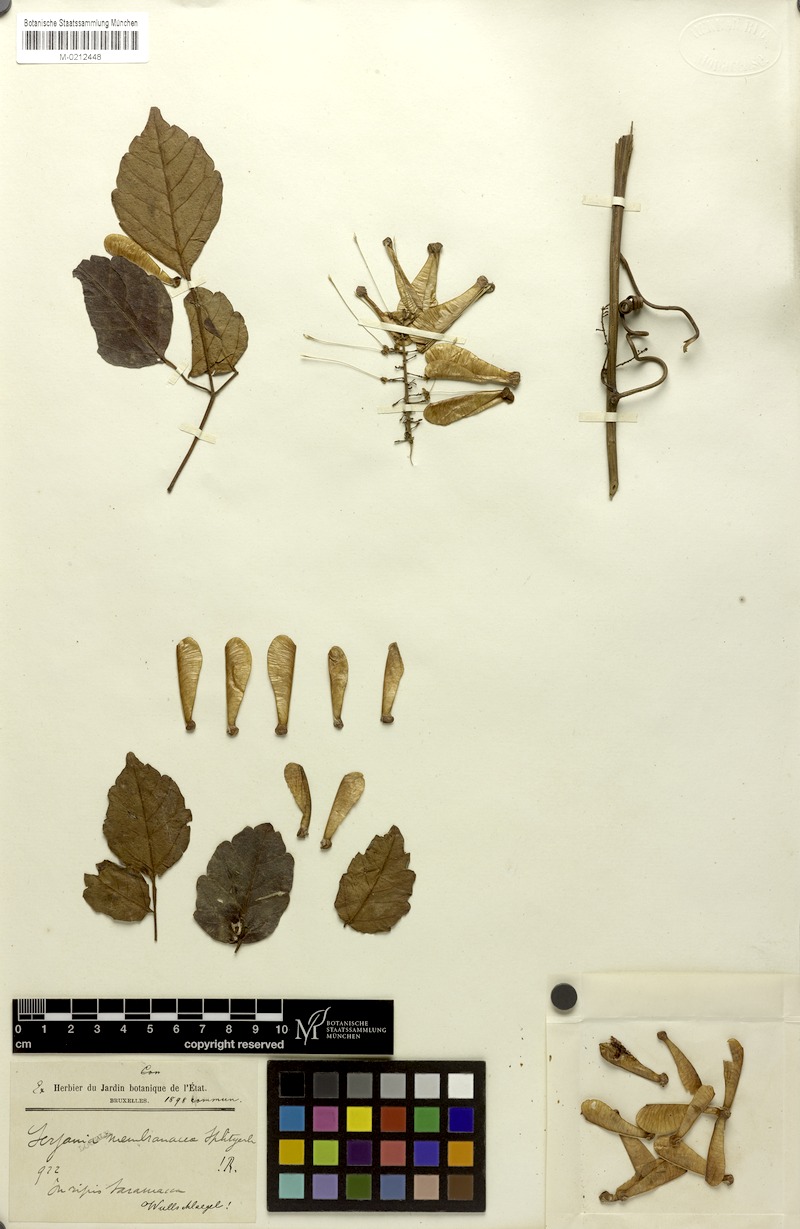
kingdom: Plantae
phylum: Tracheophyta
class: Magnoliopsida
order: Sapindales
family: Sapindaceae
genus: Serjania
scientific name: Serjania membranacea
